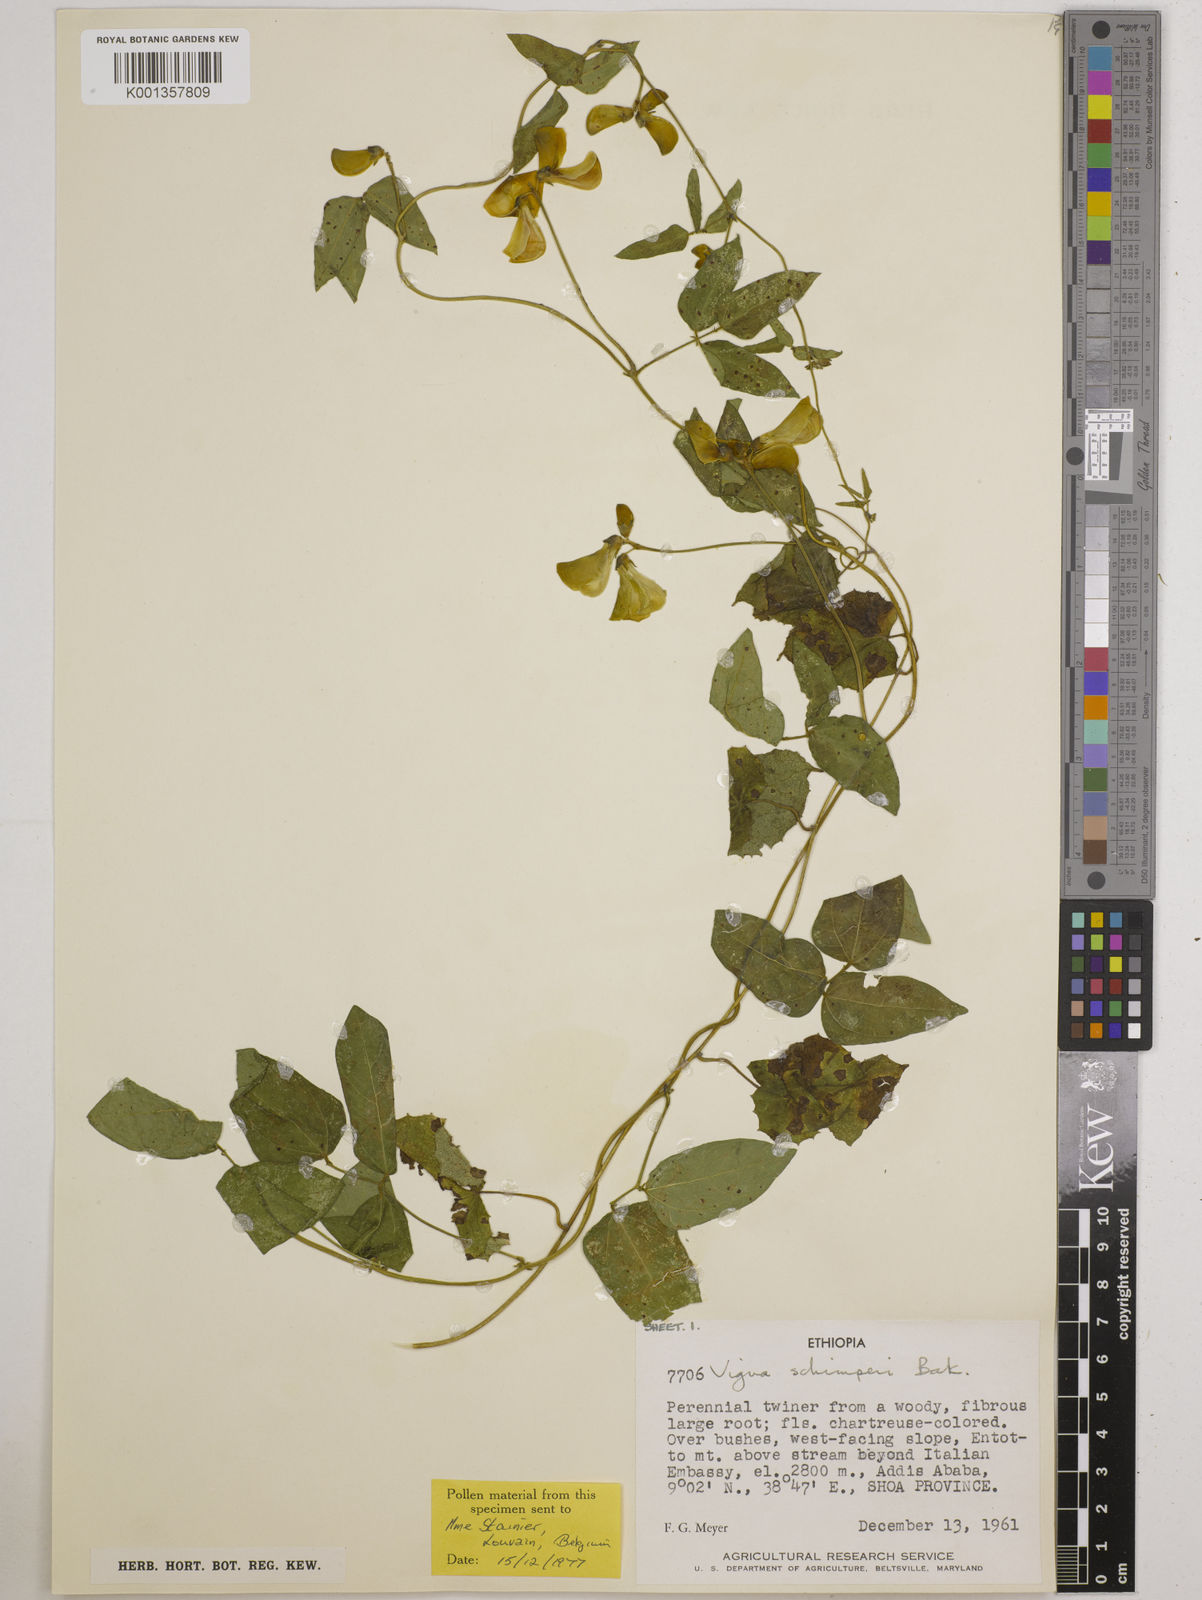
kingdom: Plantae
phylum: Tracheophyta
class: Magnoliopsida
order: Fabales
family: Fabaceae
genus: Vigna
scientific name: Vigna schimperi
